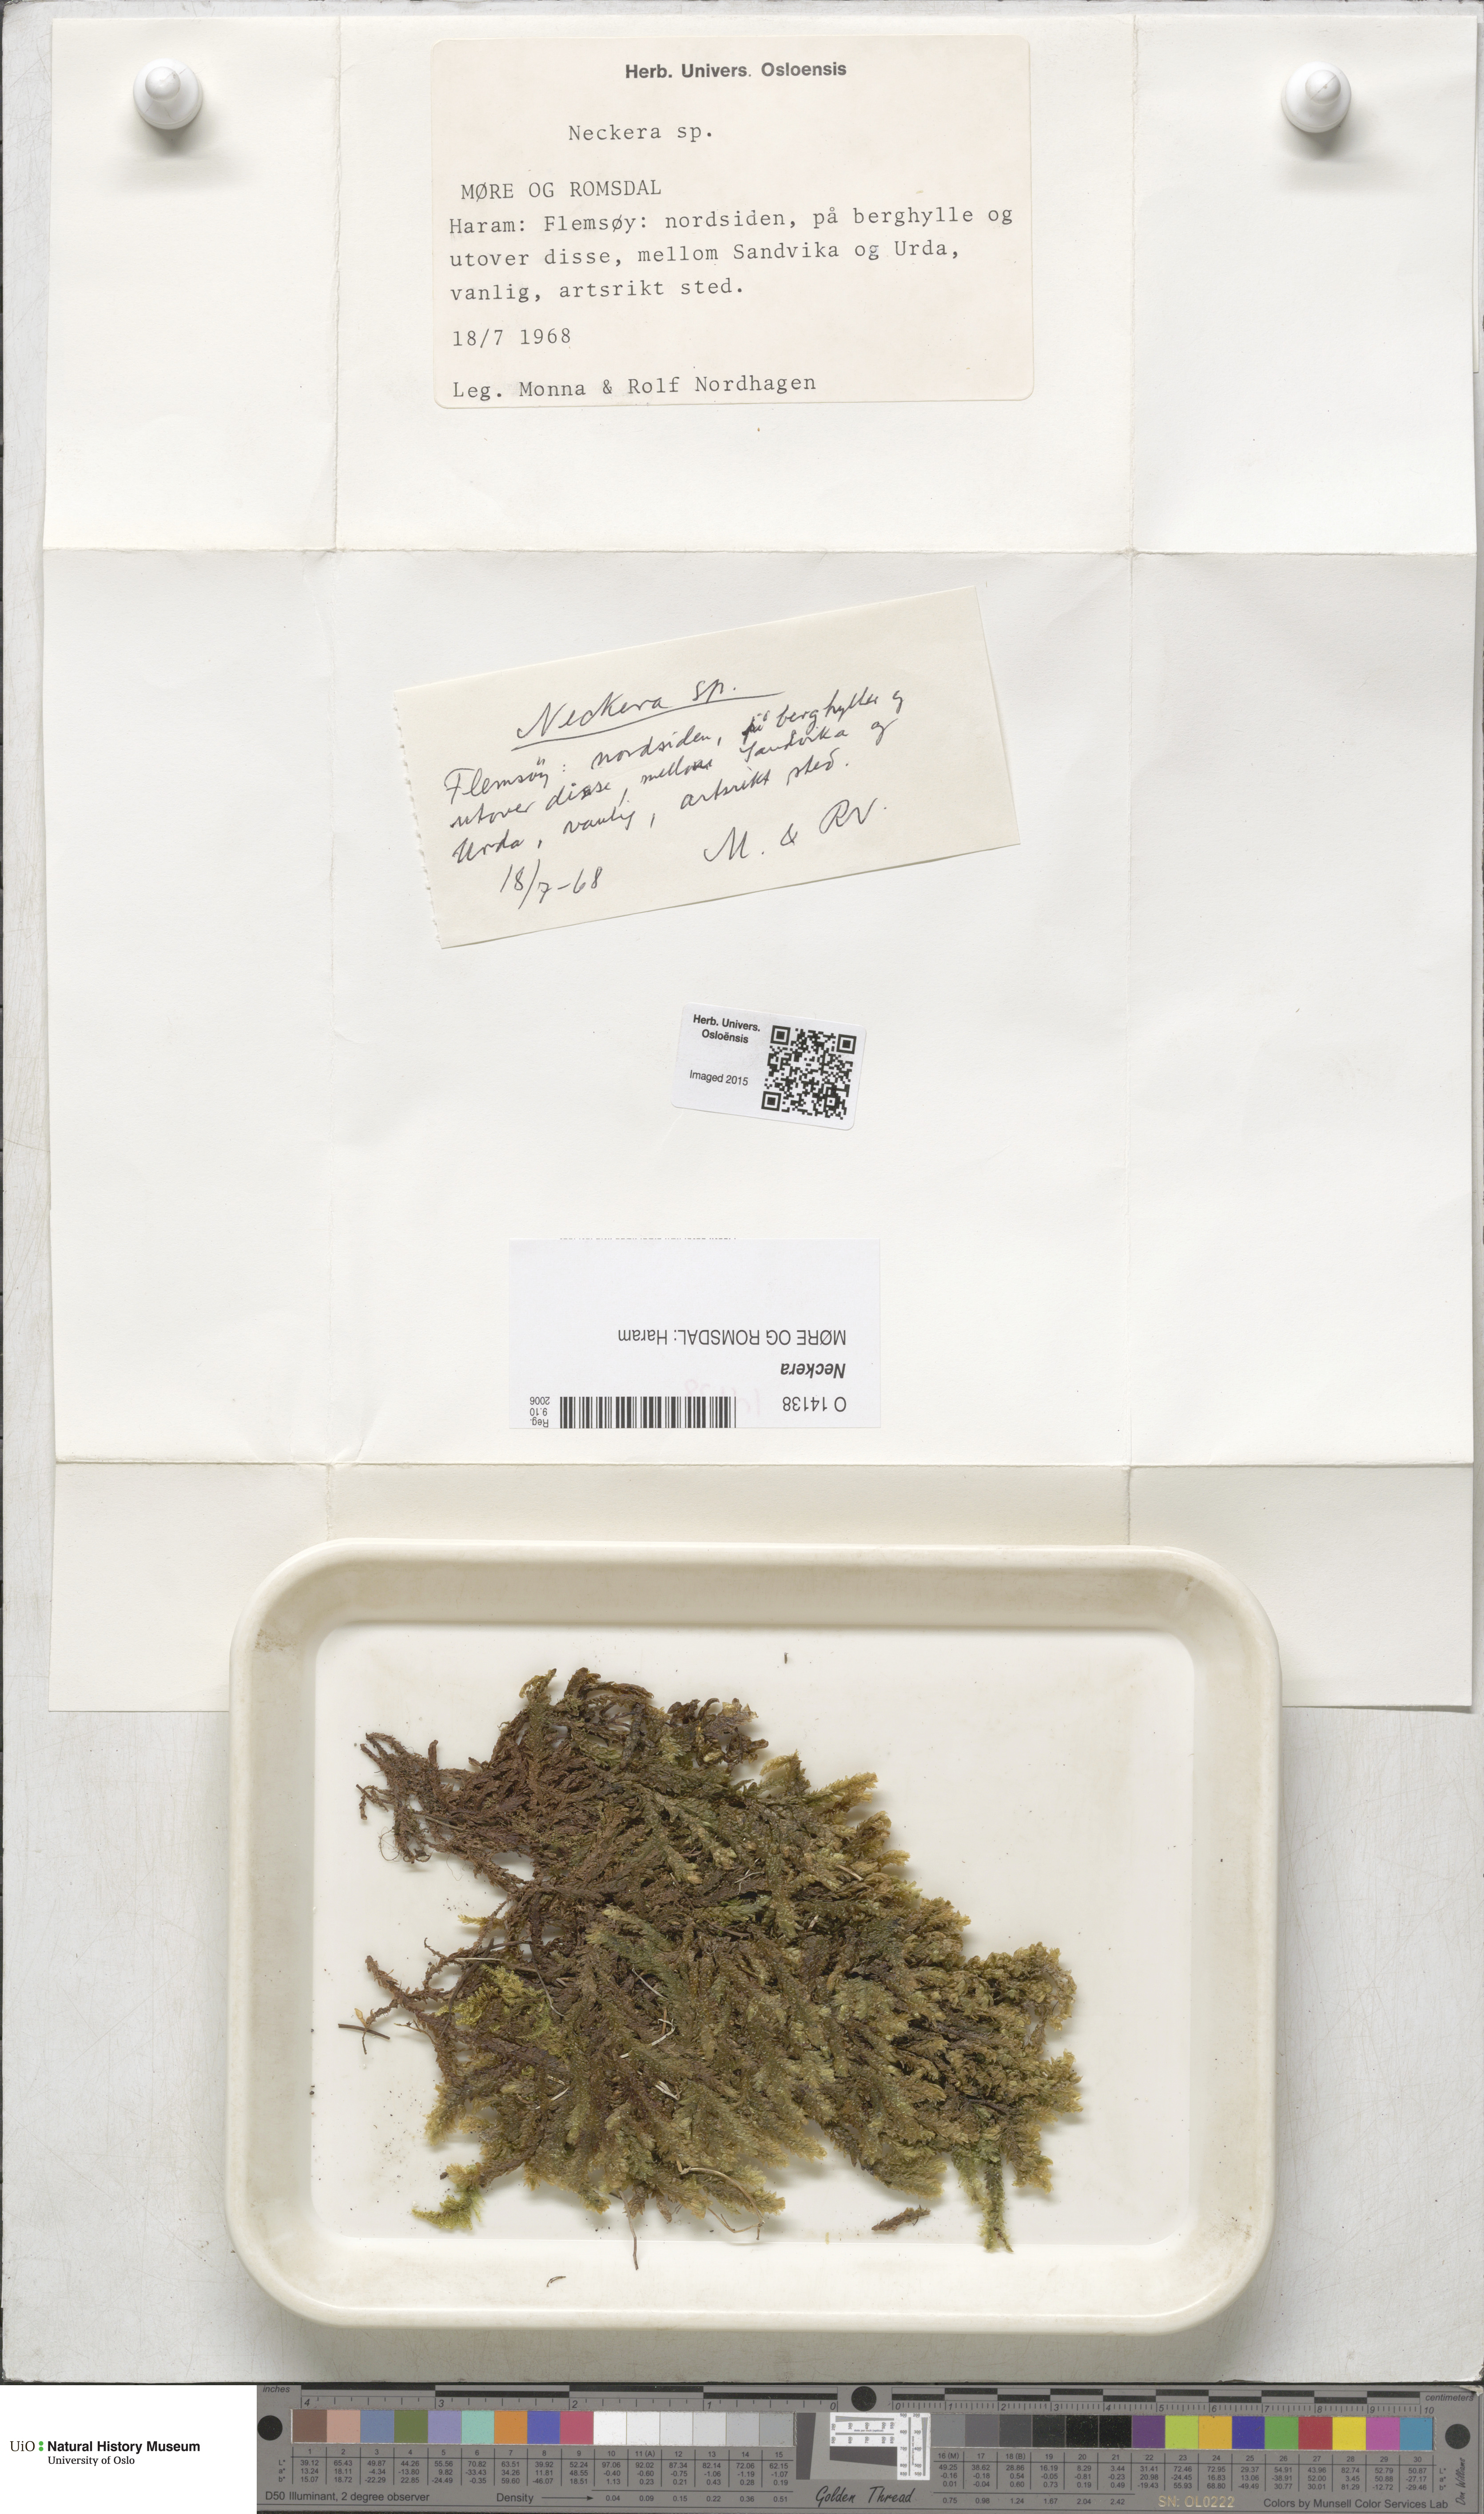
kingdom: Plantae
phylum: Bryophyta
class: Bryopsida
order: Hypnales
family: Neckeraceae
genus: Neckera
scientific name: Neckera
